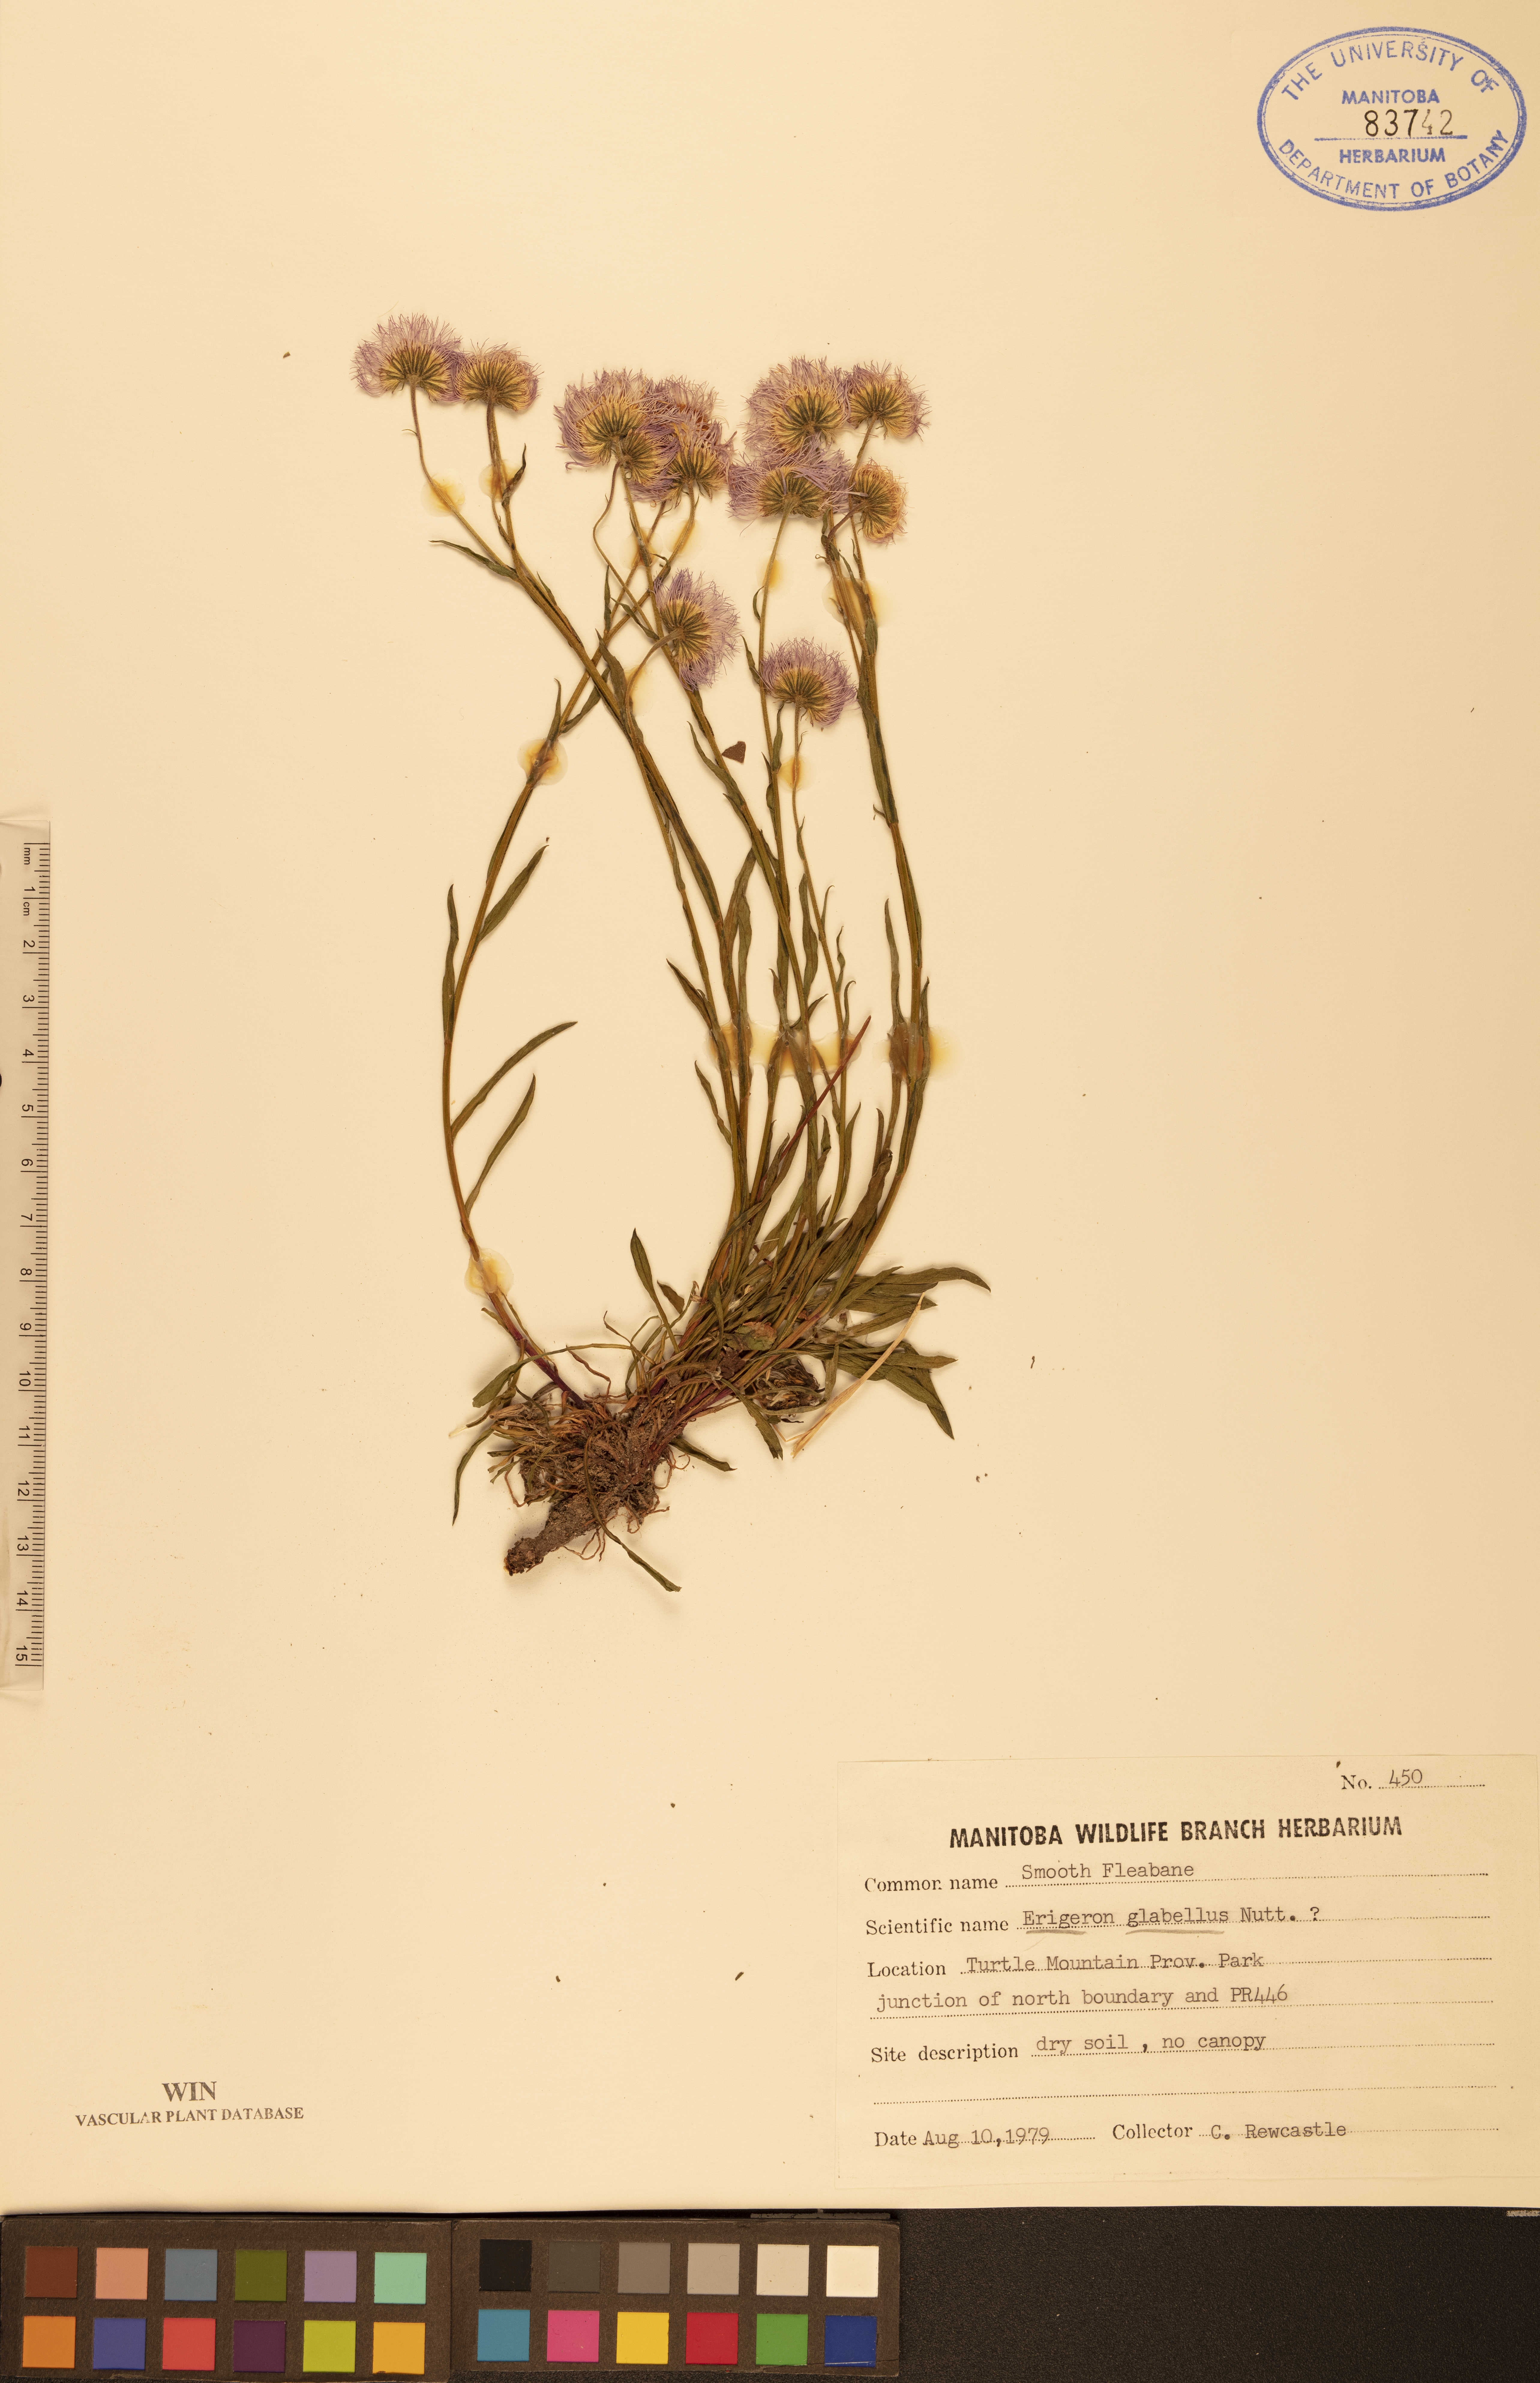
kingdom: Plantae
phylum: Tracheophyta
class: Magnoliopsida
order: Asterales
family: Asteraceae
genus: Erigeron
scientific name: Erigeron glabellus
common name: Smooth fleabane
